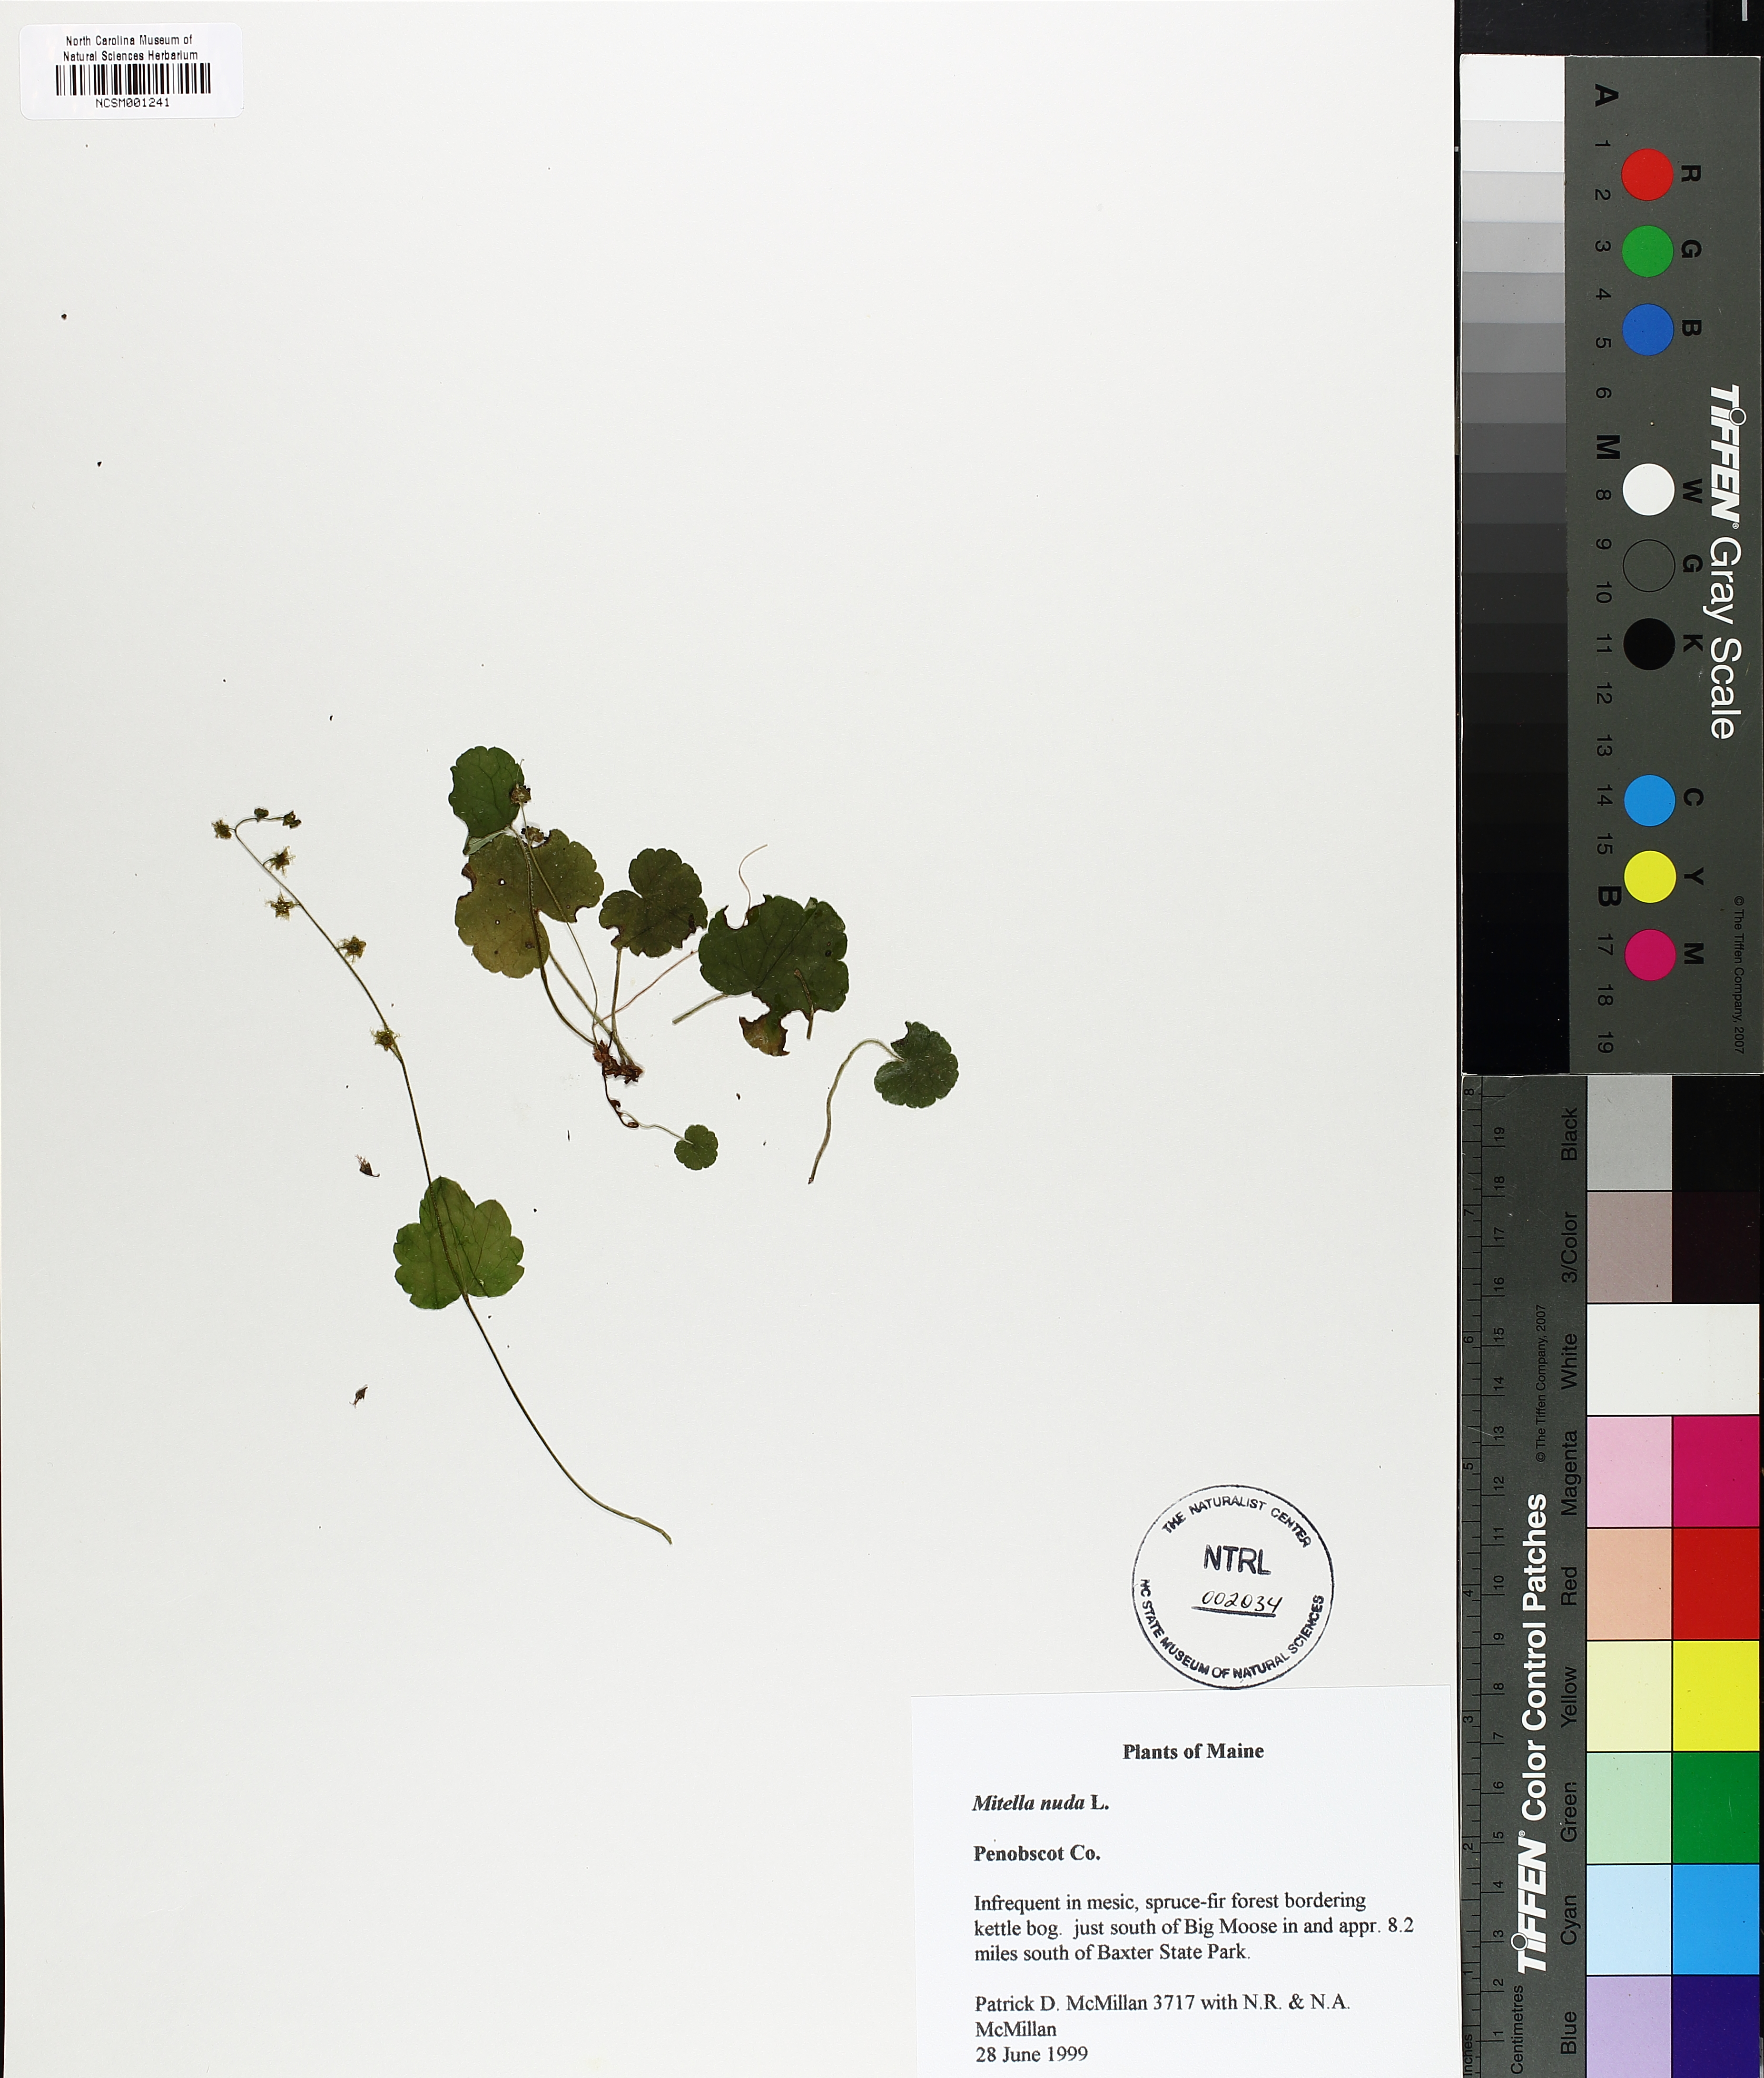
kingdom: Plantae
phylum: Tracheophyta
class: Magnoliopsida
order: Saxifragales
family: Saxifragaceae
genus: Mitella
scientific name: Mitella nuda
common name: Bare-stemmed bishop's-cap
